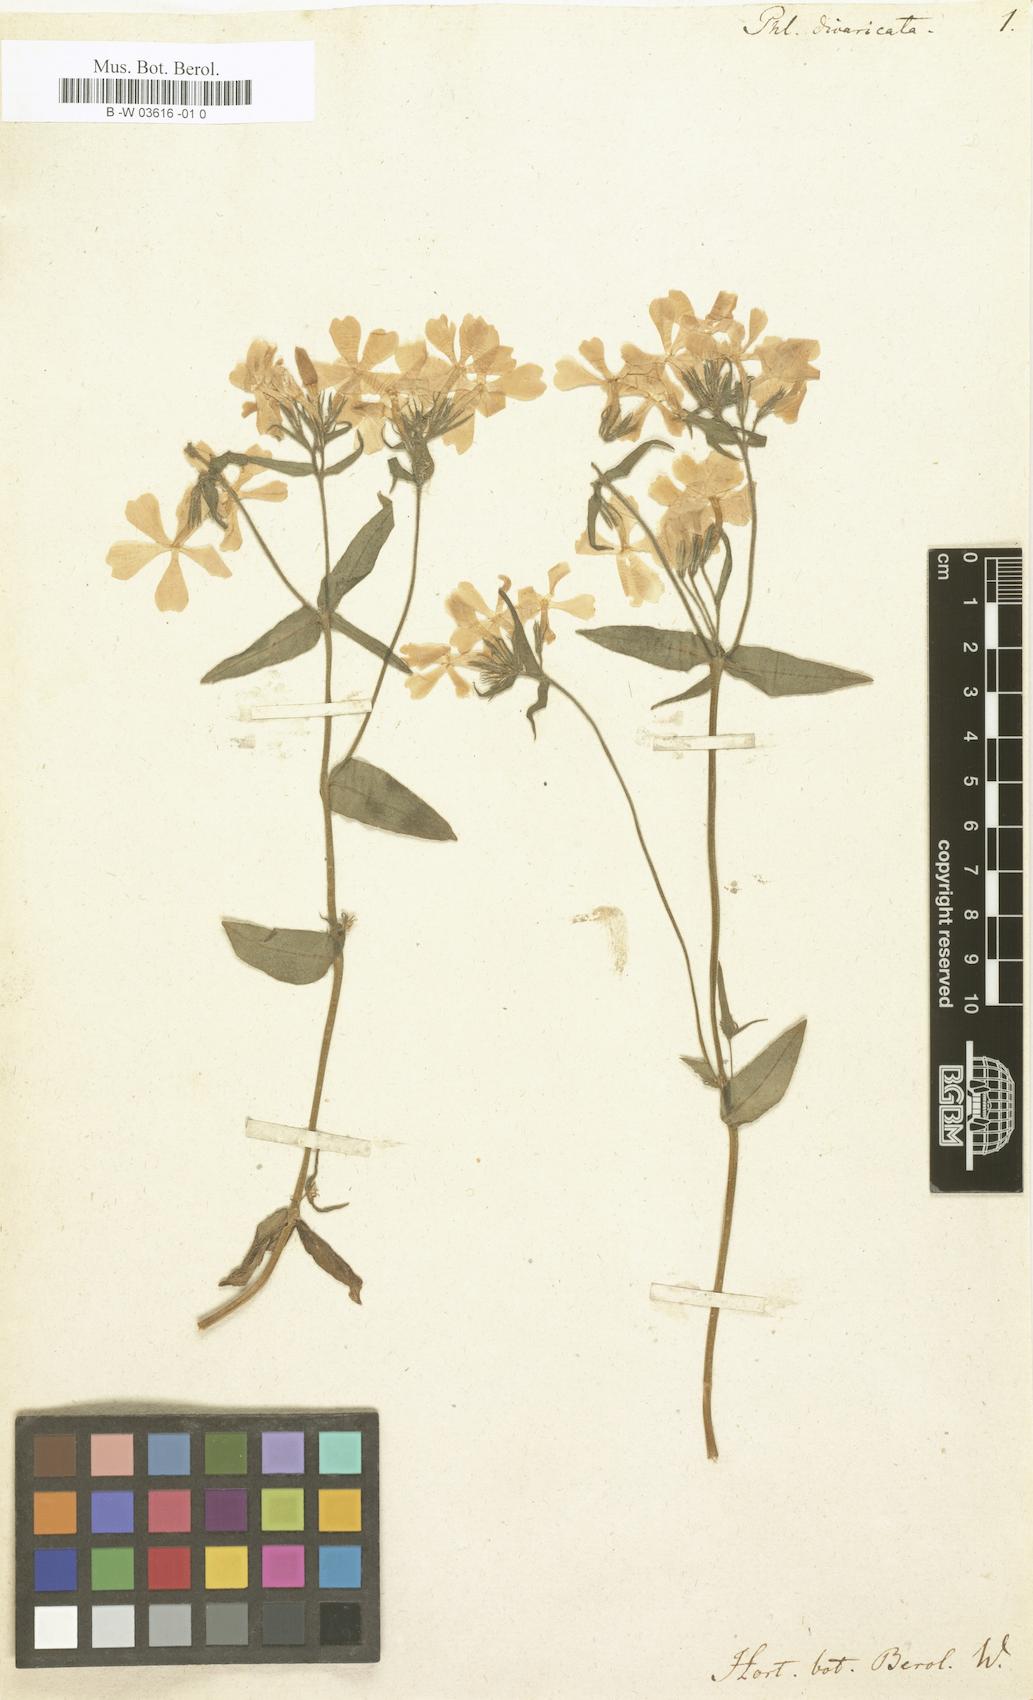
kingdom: Plantae
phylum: Tracheophyta
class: Magnoliopsida
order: Ericales
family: Polemoniaceae
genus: Phlox
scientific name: Phlox divaricata
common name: Blue phlox
